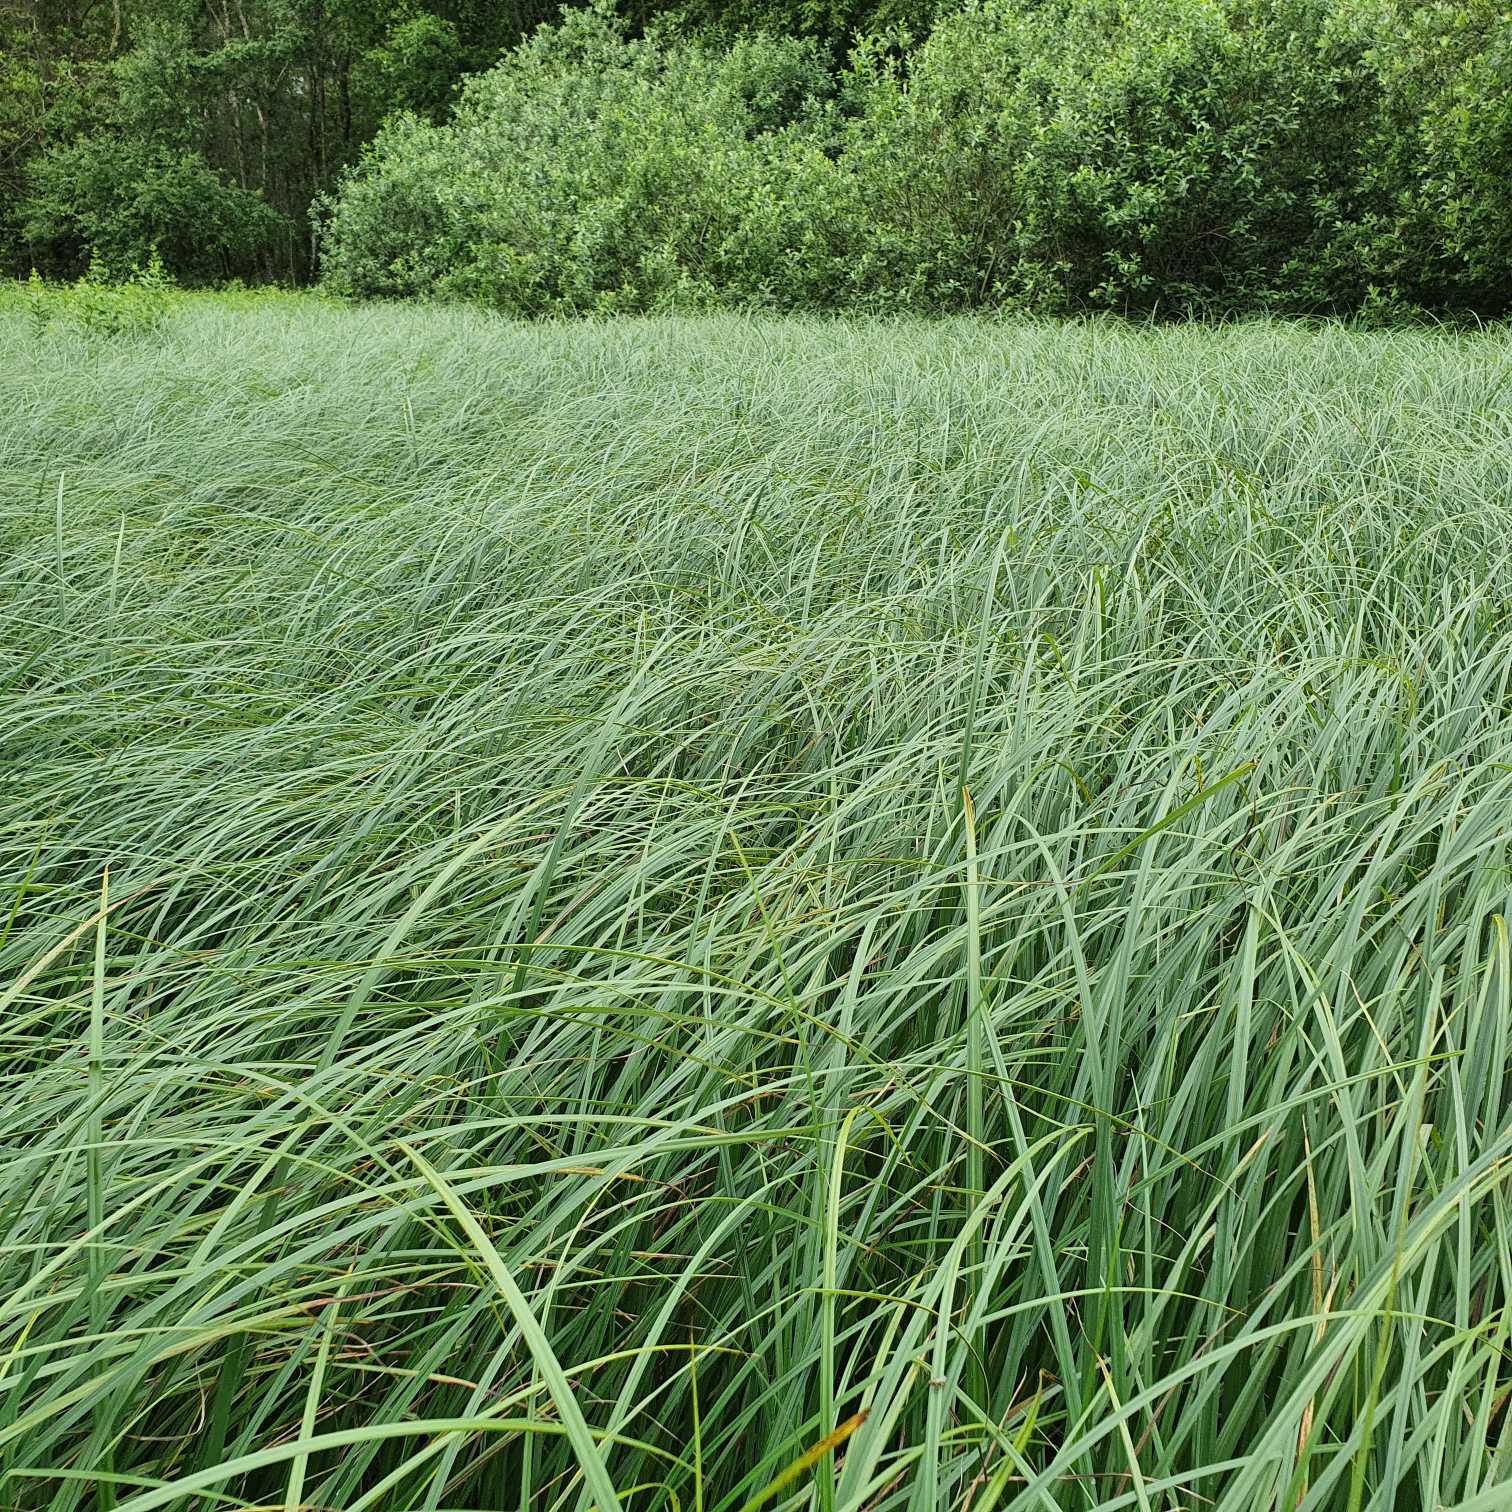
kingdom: Plantae
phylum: Tracheophyta
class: Liliopsida
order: Poales
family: Cyperaceae
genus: Carex
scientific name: Carex acutiformis
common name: Kær-star
